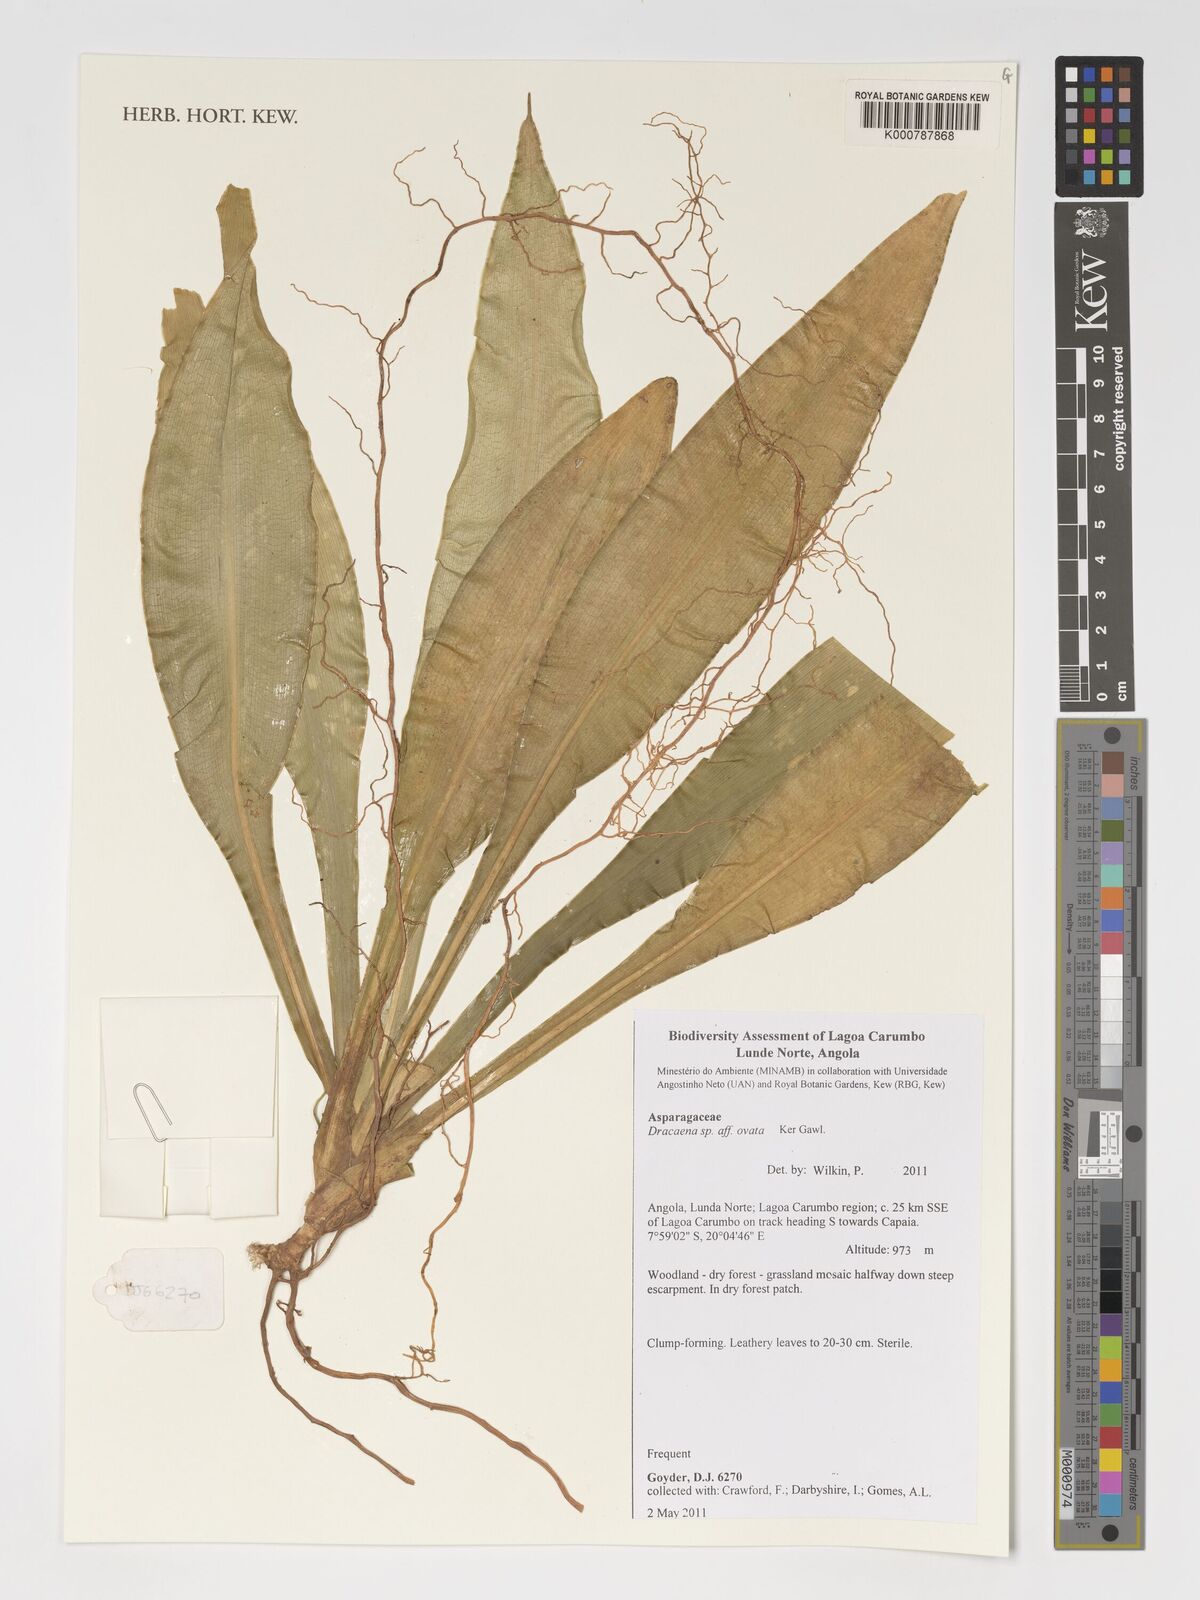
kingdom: Plantae
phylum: Tracheophyta
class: Liliopsida
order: Asparagales
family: Asparagaceae
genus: Dracaena
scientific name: Dracaena ovata
